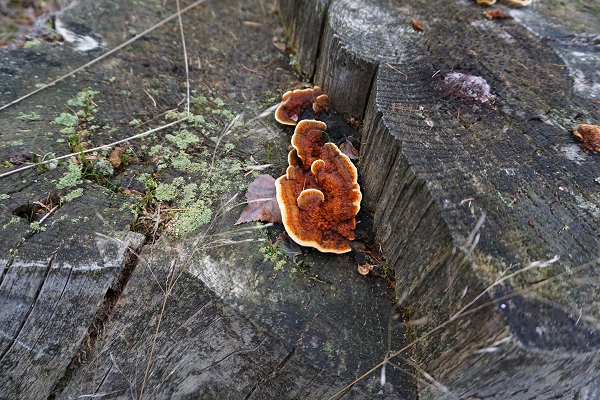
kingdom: Fungi
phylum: Basidiomycota
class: Agaricomycetes
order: Gloeophyllales
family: Gloeophyllaceae
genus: Gloeophyllum
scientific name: Gloeophyllum sepiarium
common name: fyrre-korkhat
